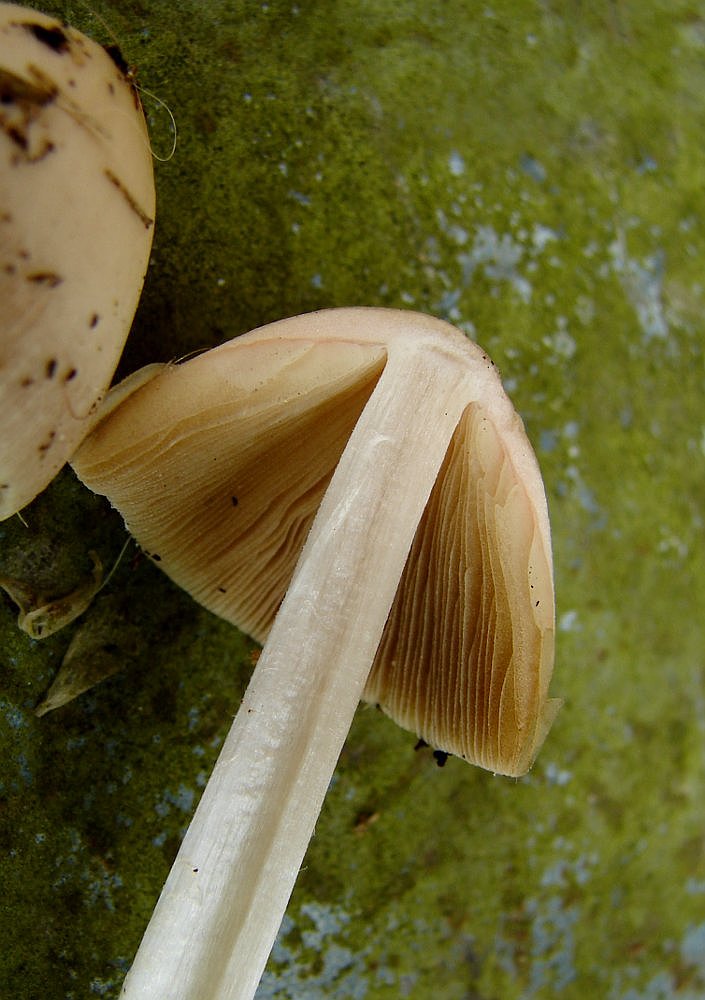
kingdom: Fungi
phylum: Basidiomycota
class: Agaricomycetes
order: Agaricales
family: Bolbitiaceae
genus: Bolbitius
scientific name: Bolbitius coprophilus
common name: rosa gulhat
